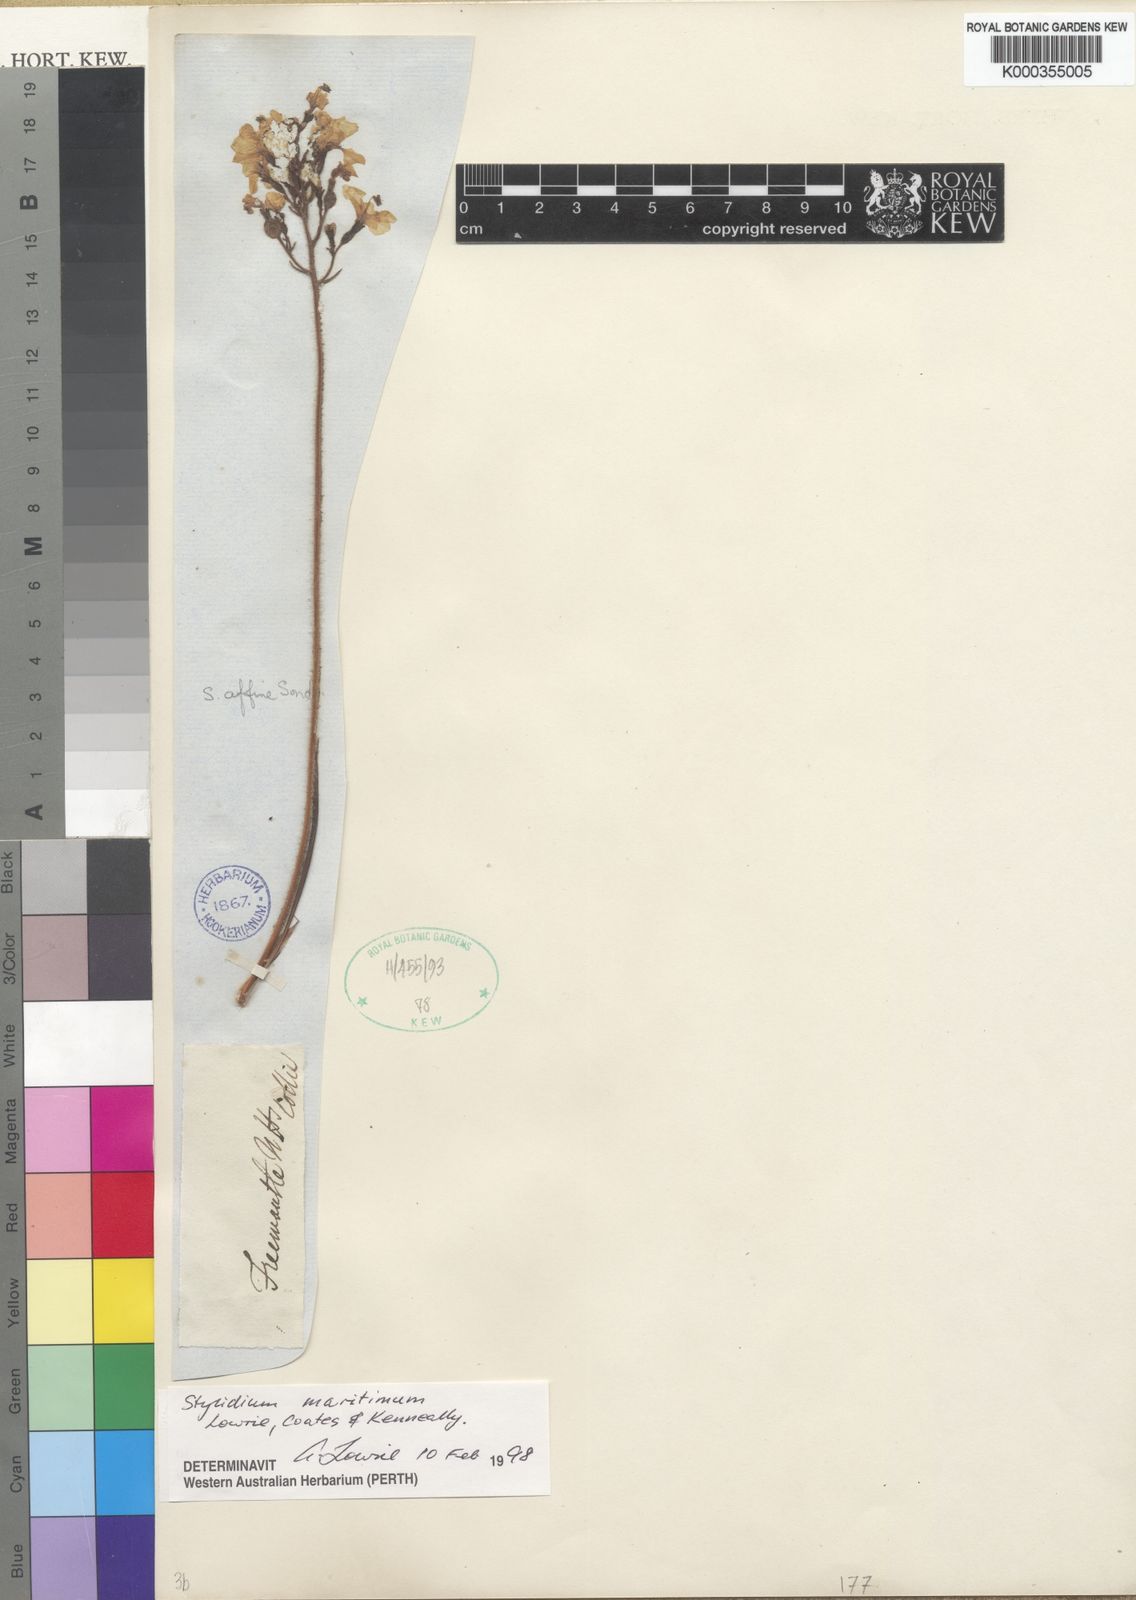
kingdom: Plantae
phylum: Tracheophyta
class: Magnoliopsida
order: Asterales
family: Stylidiaceae
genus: Stylidium
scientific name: Stylidium
